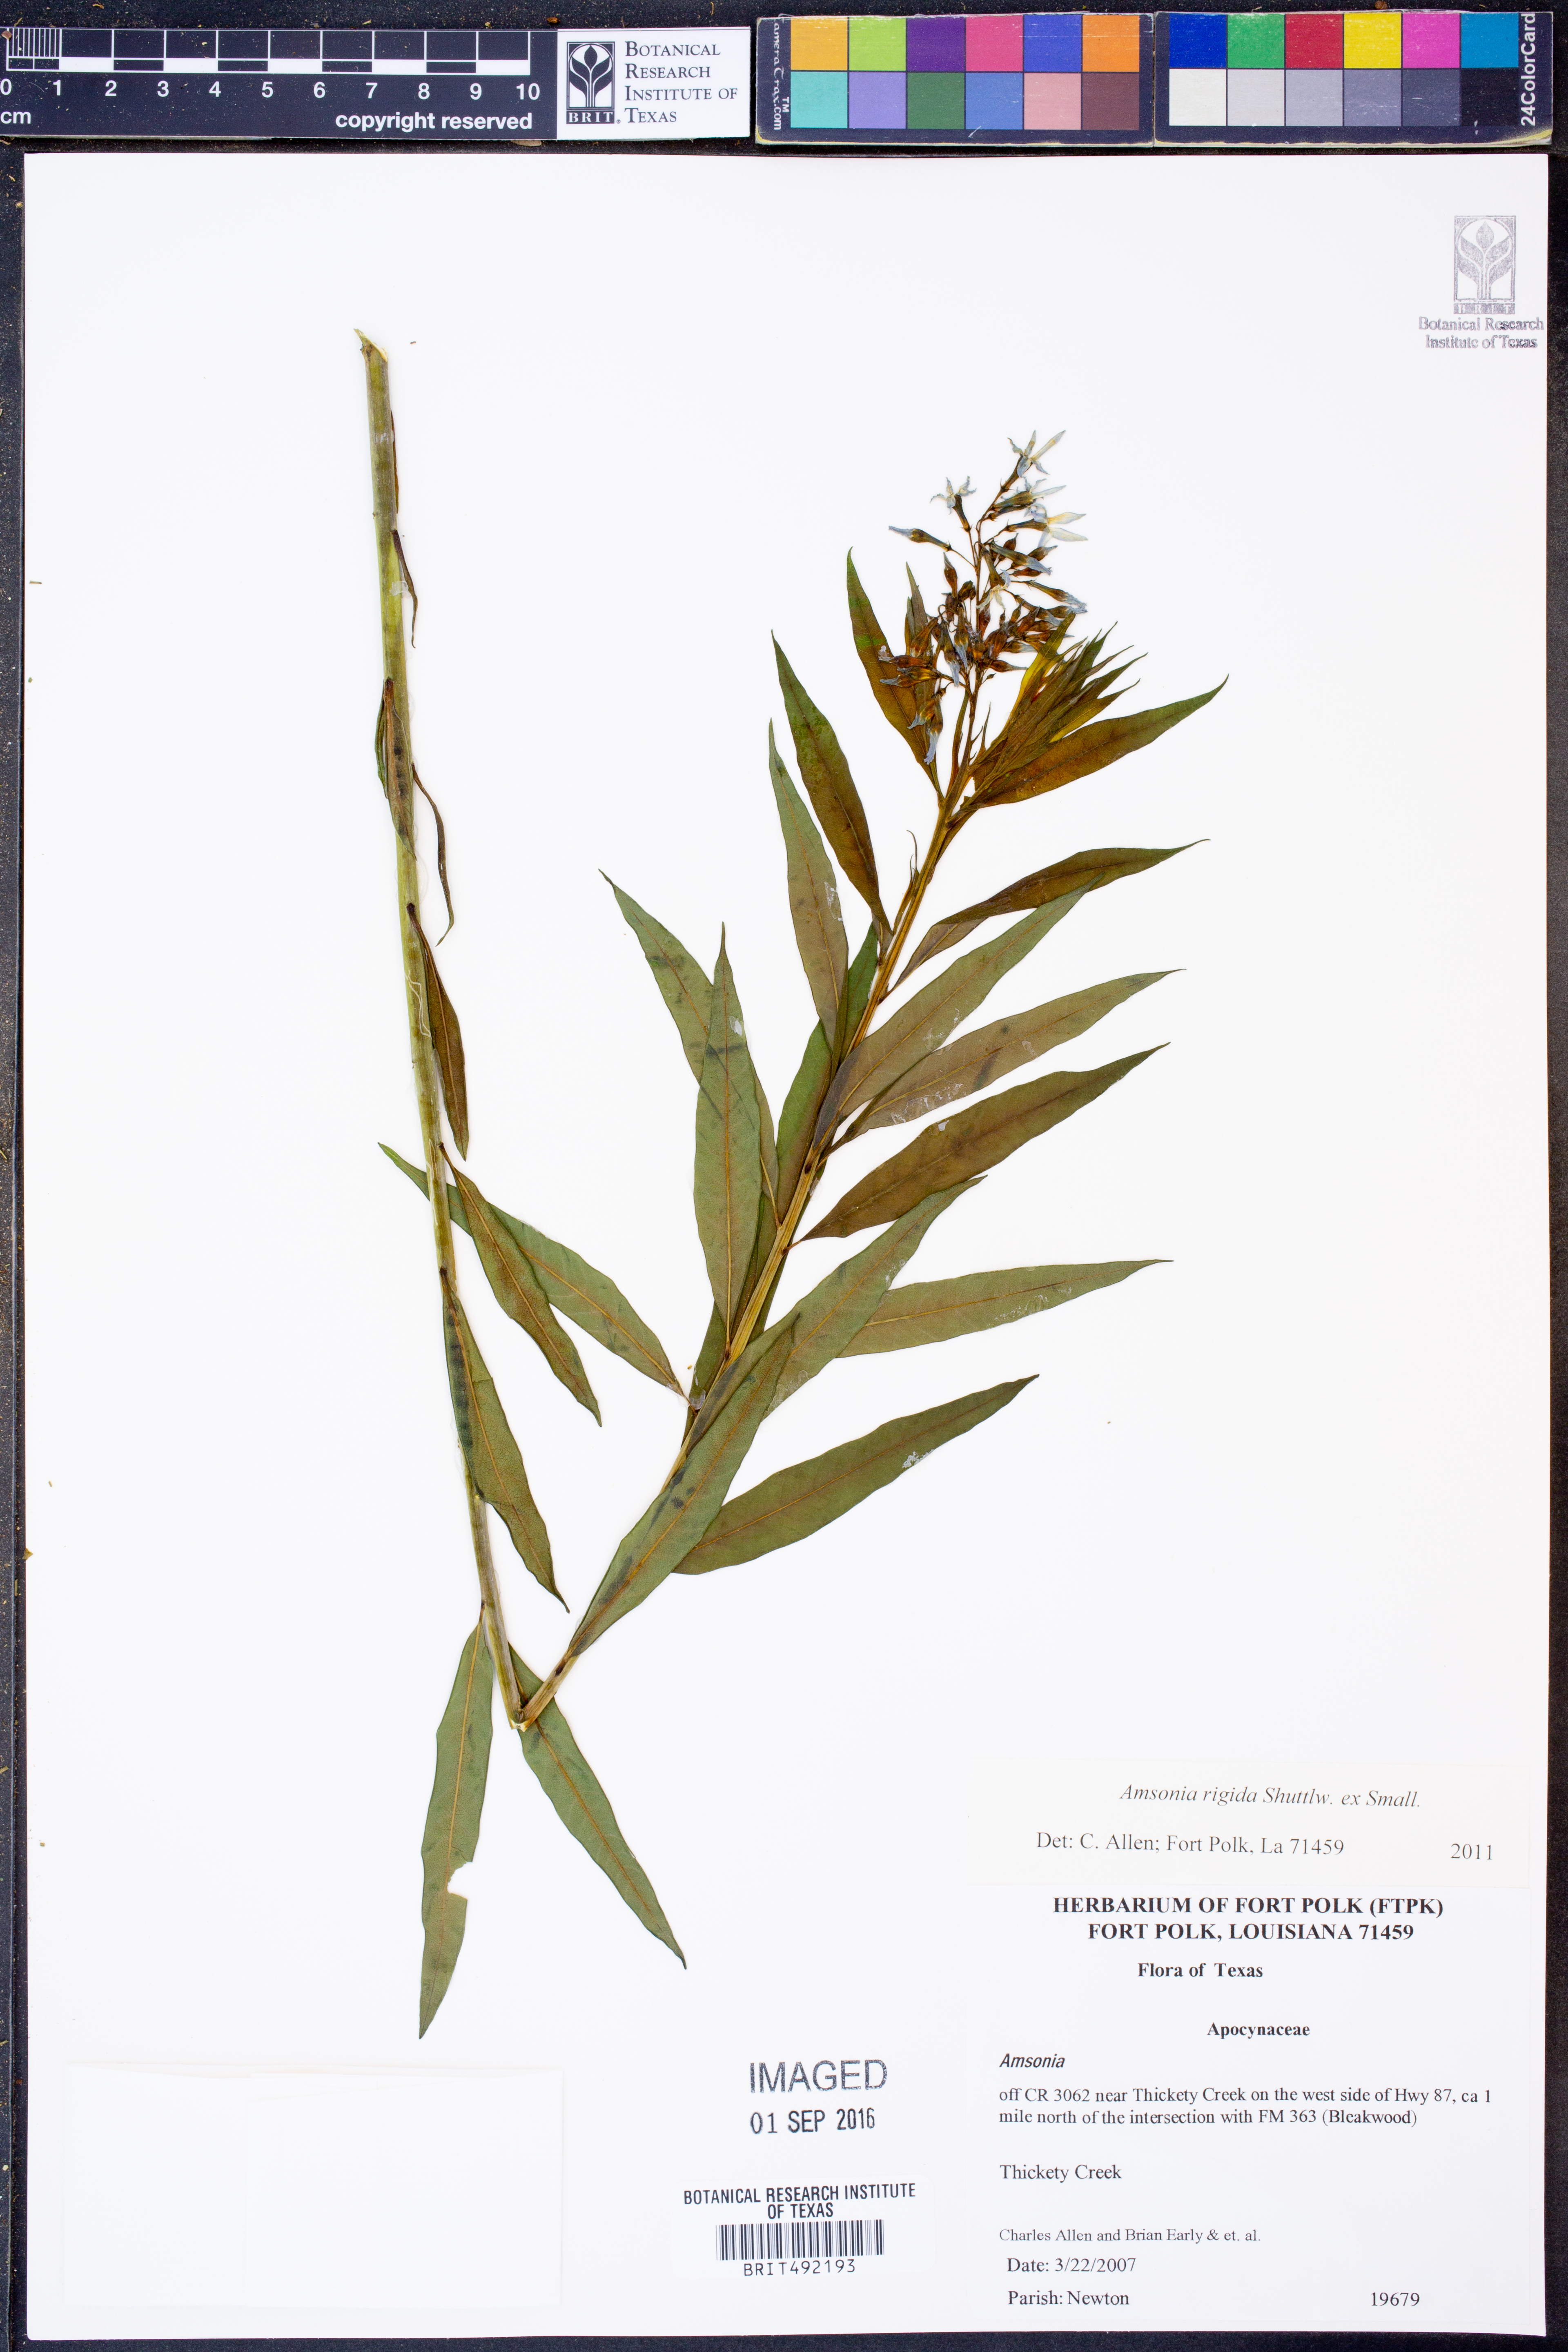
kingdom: Plantae
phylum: Tracheophyta
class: Magnoliopsida
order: Gentianales
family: Apocynaceae
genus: Amsonia
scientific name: Amsonia rigida
